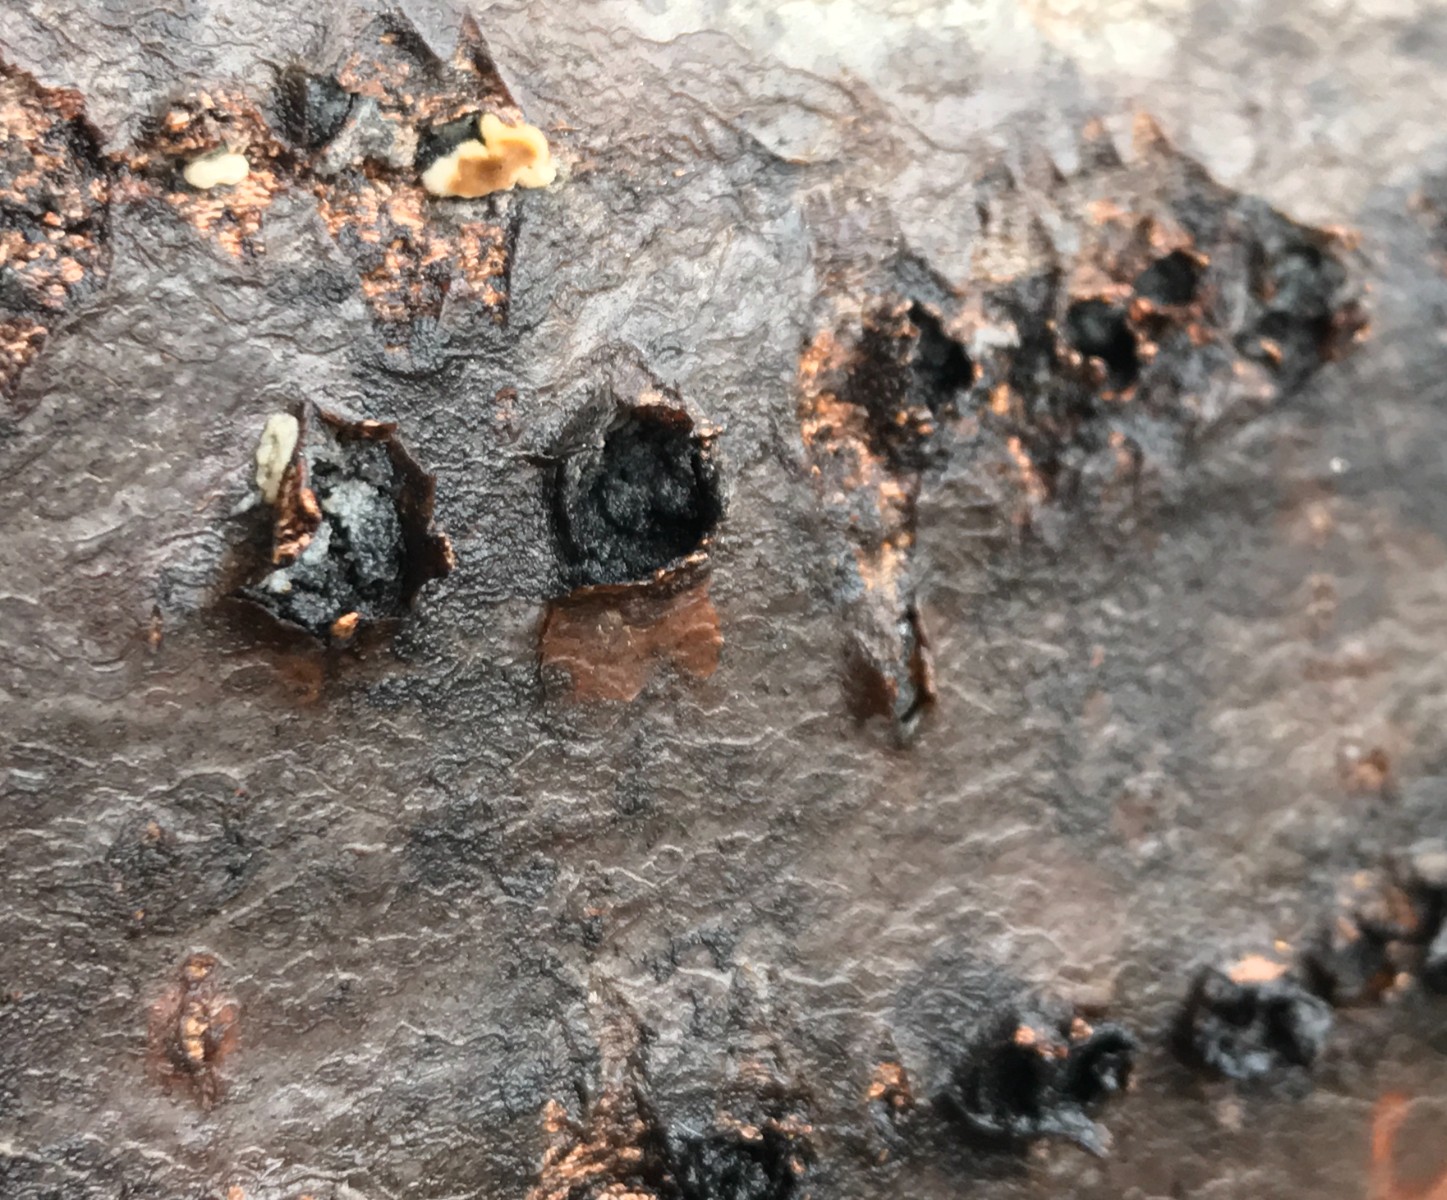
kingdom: Fungi
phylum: Ascomycota
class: Sordariomycetes
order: Xylariales
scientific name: Xylariales
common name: stødsvampordenen
